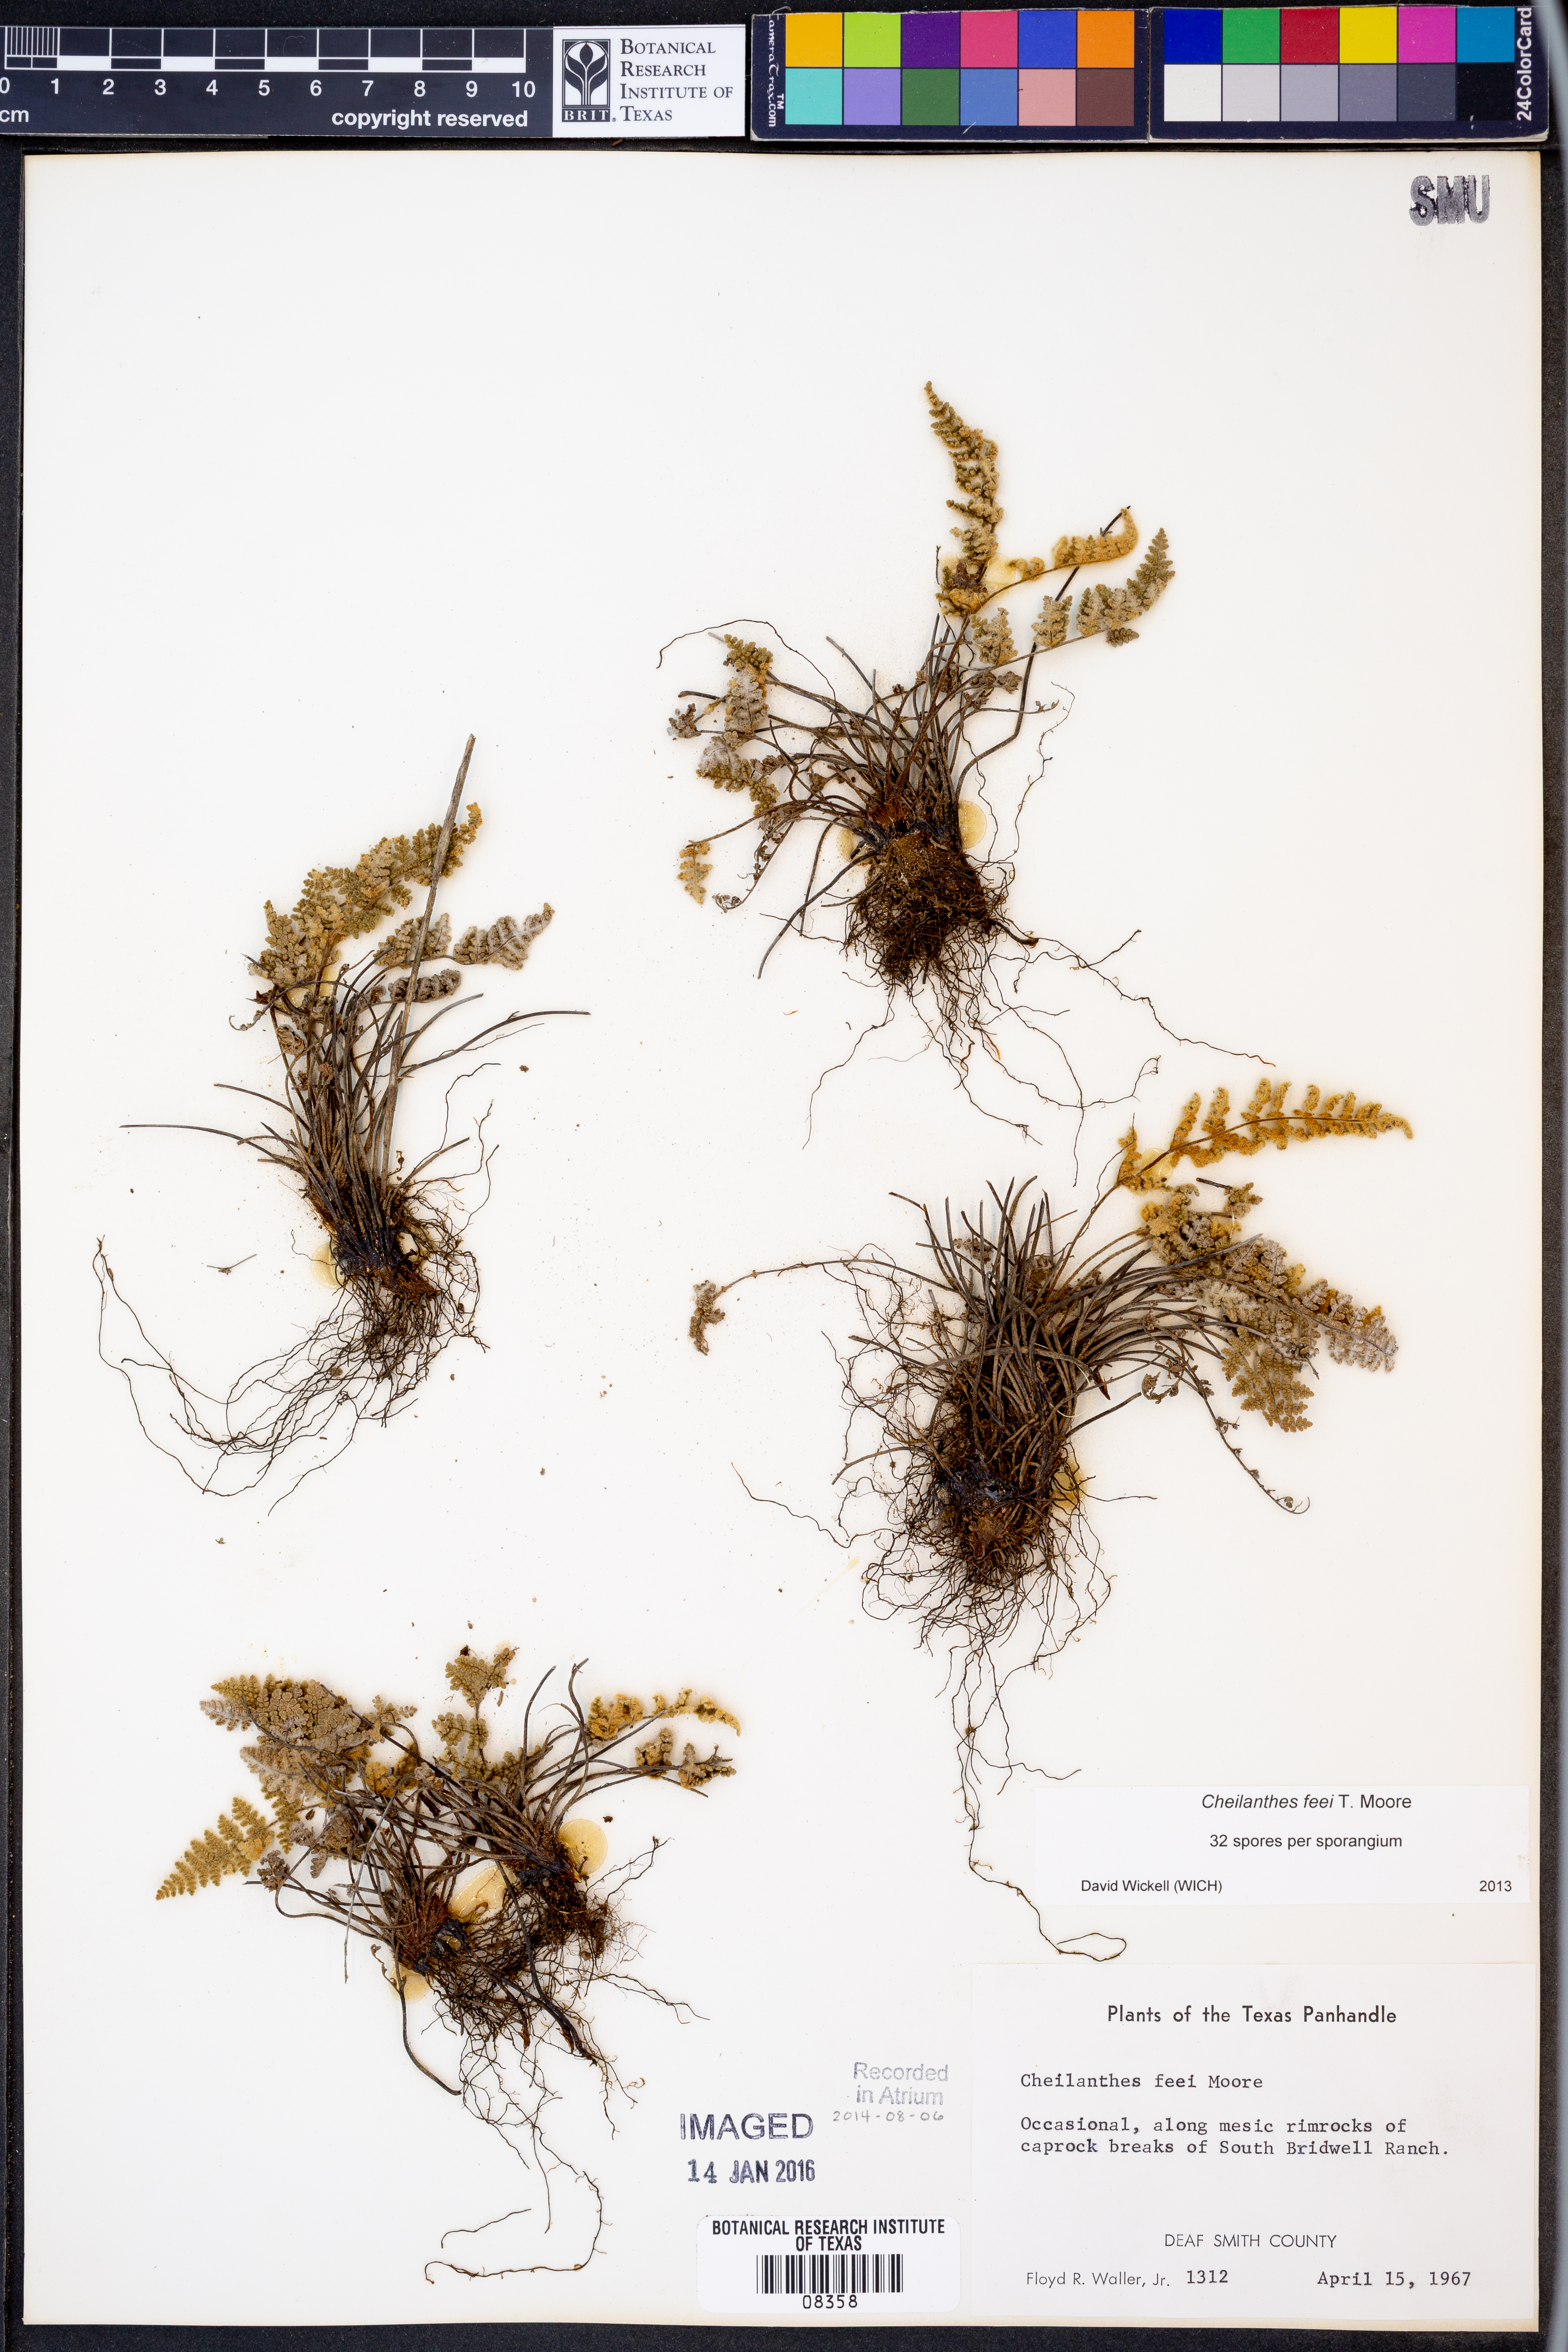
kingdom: Plantae
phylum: Tracheophyta
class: Polypodiopsida
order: Polypodiales
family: Pteridaceae
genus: Myriopteris
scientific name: Myriopteris gracilis
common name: Fee's lip fern
